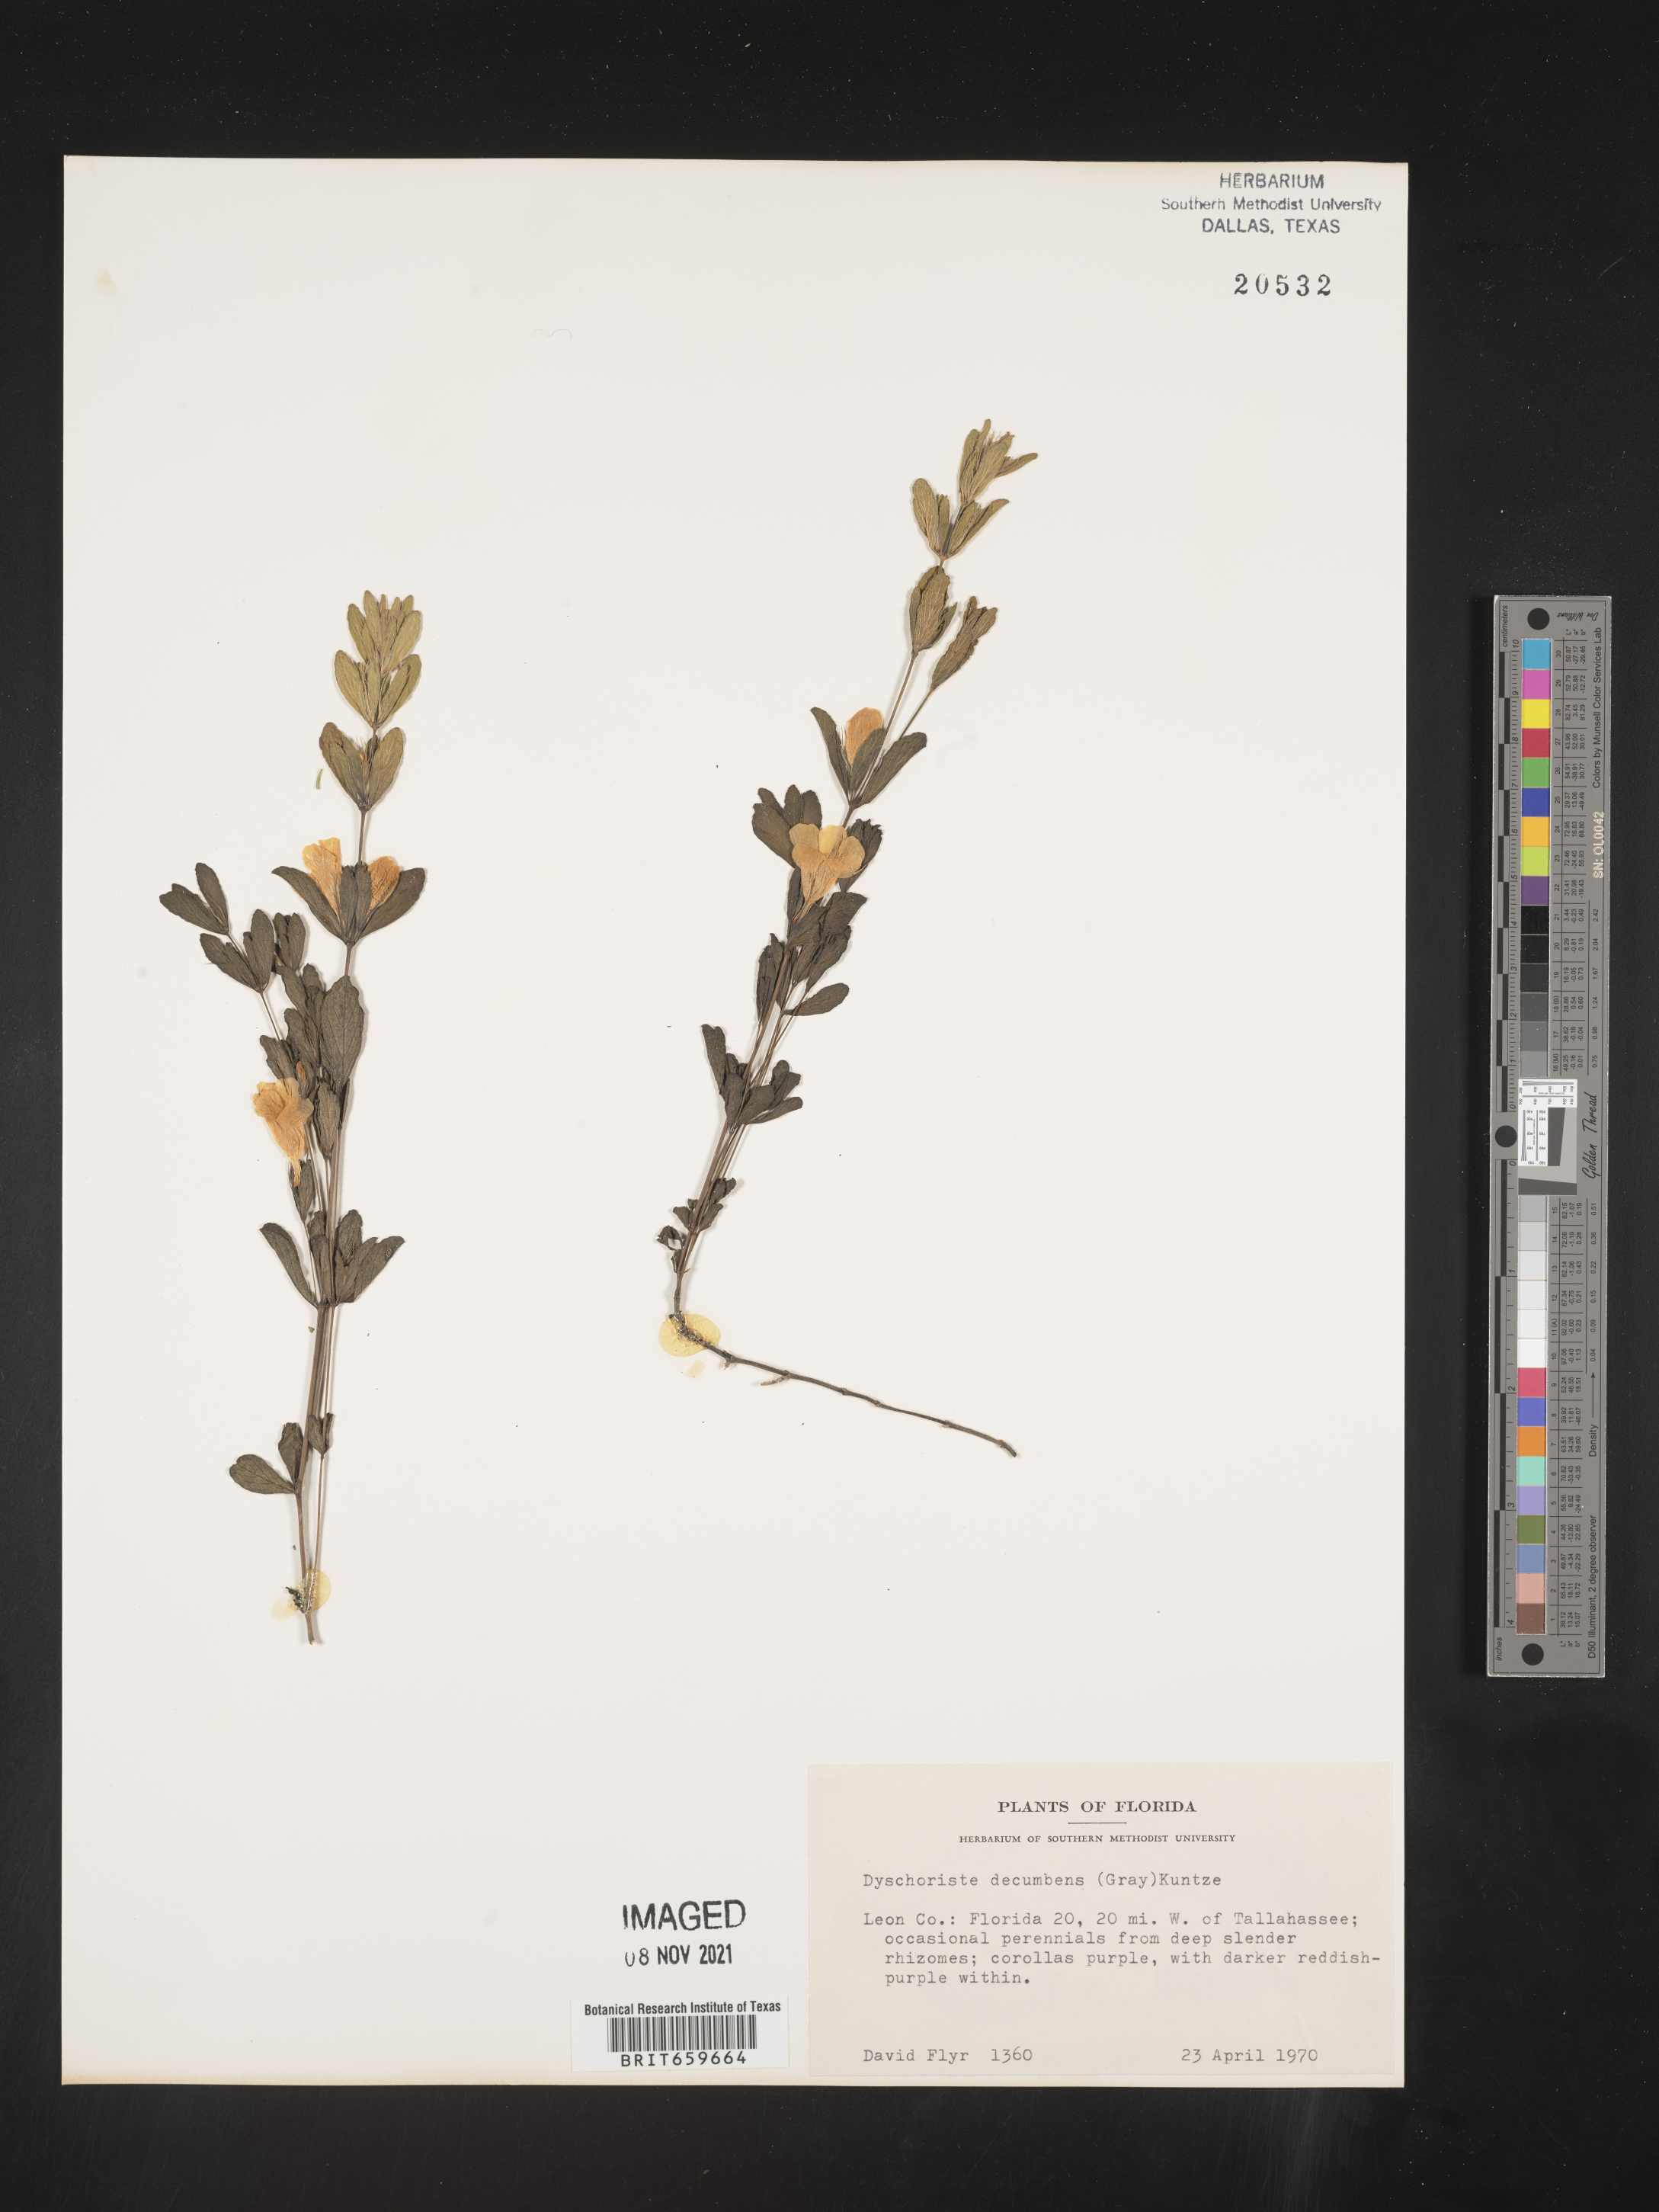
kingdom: Plantae
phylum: Tracheophyta
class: Magnoliopsida
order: Lamiales
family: Acanthaceae
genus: Dyschoriste
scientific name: Dyschoriste
